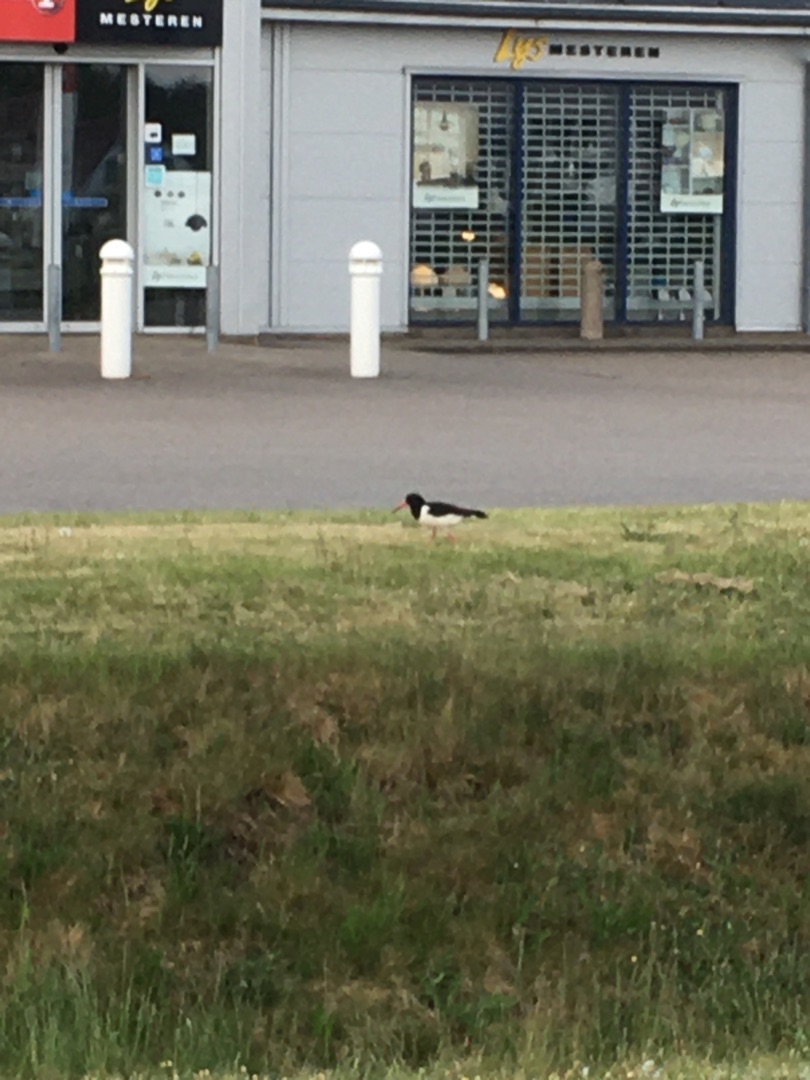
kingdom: Animalia
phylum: Chordata
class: Aves
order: Charadriiformes
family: Haematopodidae
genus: Haematopus
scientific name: Haematopus ostralegus
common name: Strandskade
